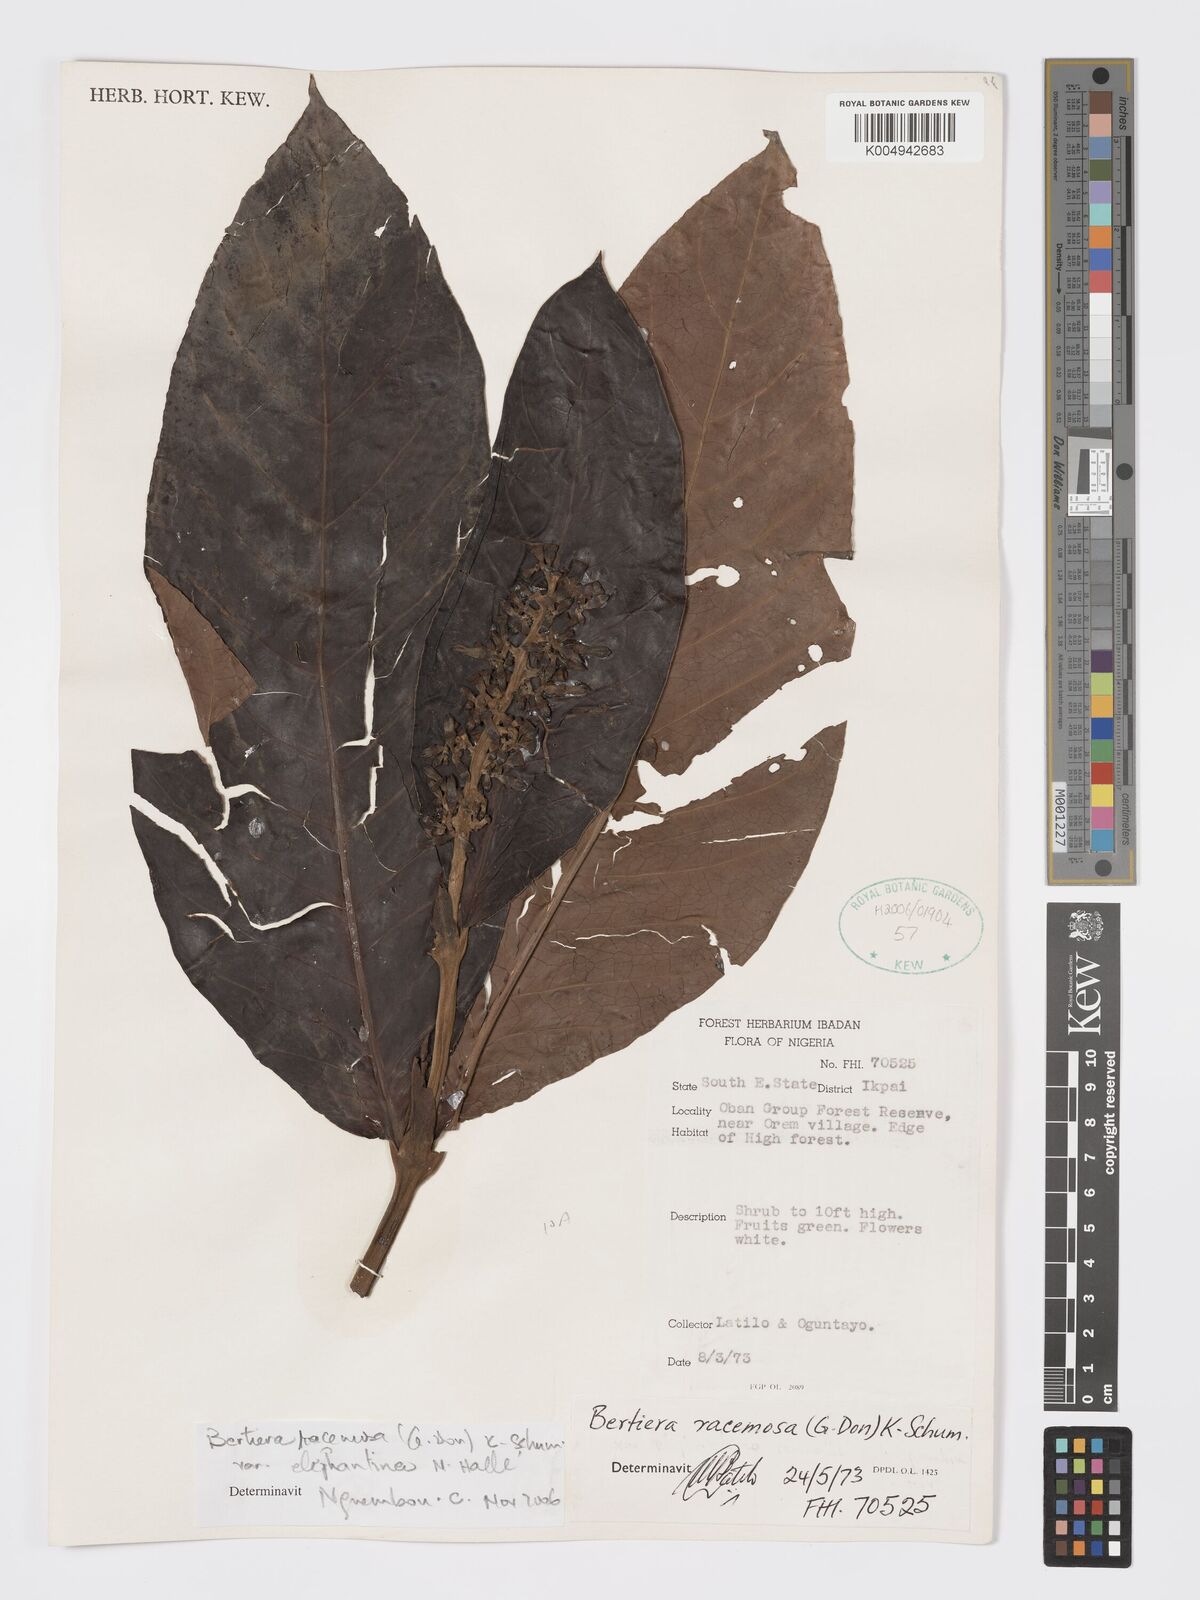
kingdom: Plantae
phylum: Tracheophyta
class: Magnoliopsida
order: Gentianales
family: Rubiaceae
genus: Bertiera
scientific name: Bertiera racemosa
